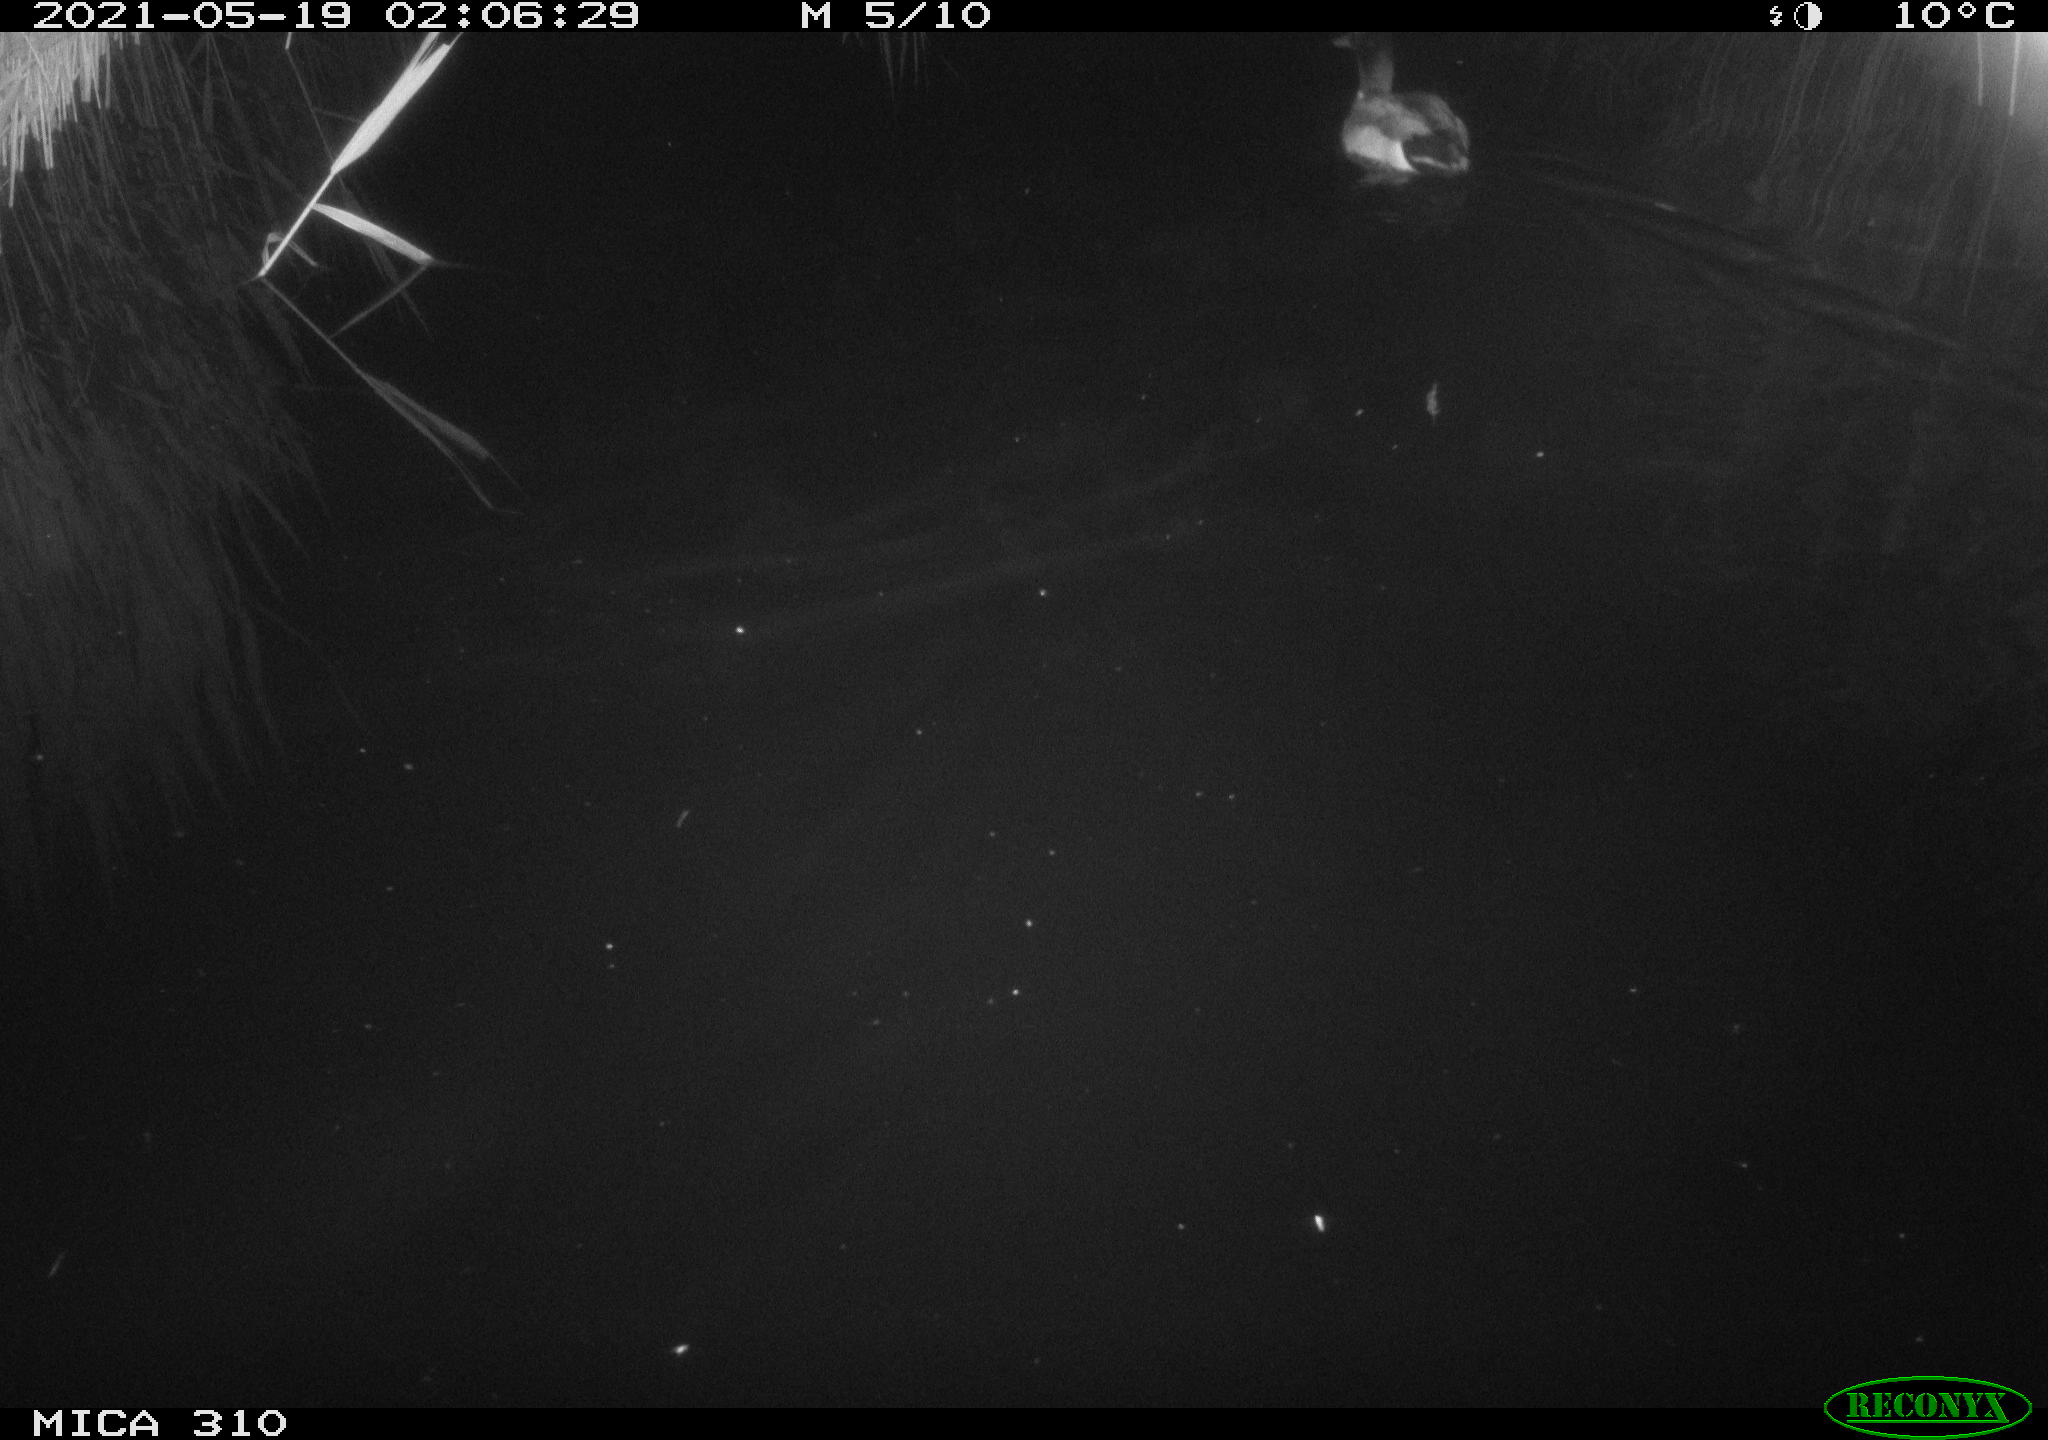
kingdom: Animalia
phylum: Chordata
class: Aves
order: Anseriformes
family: Anatidae
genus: Anas
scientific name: Anas platyrhynchos
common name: Mallard
